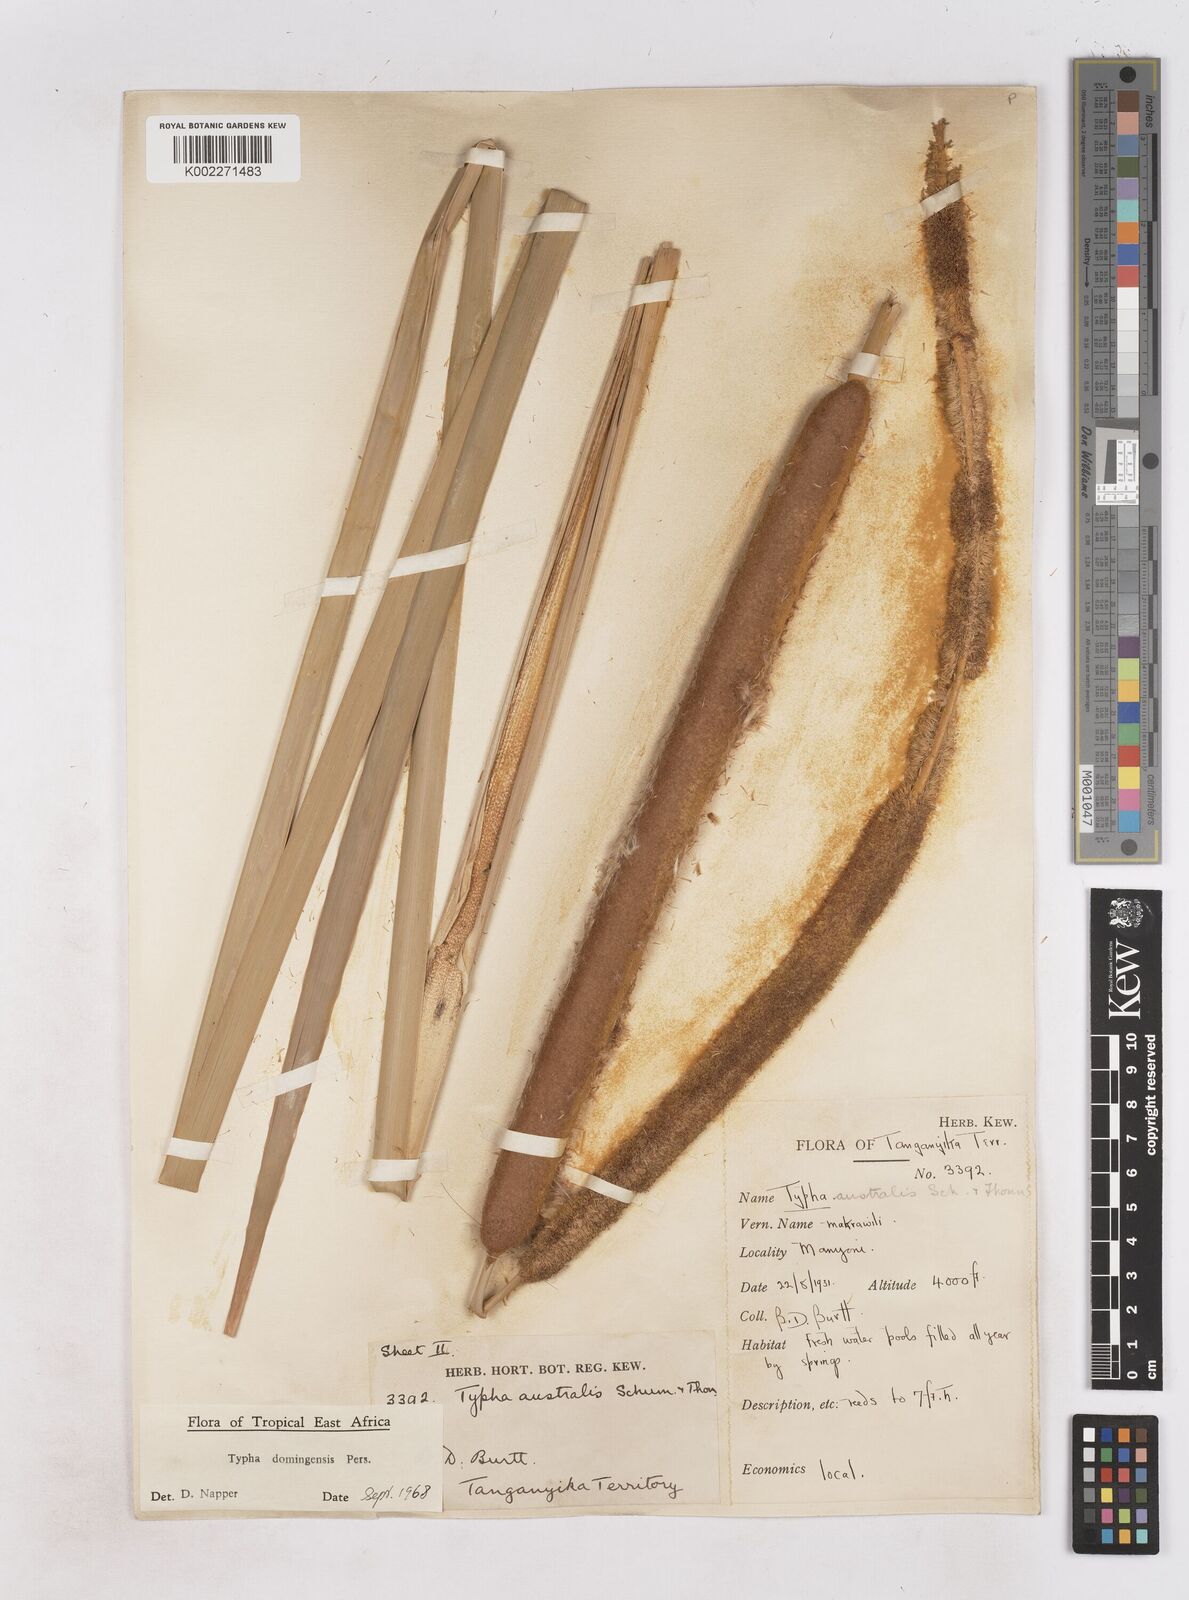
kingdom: Plantae
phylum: Tracheophyta
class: Liliopsida
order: Poales
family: Typhaceae
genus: Typha
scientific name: Typha domingensis
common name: Southern cattail
